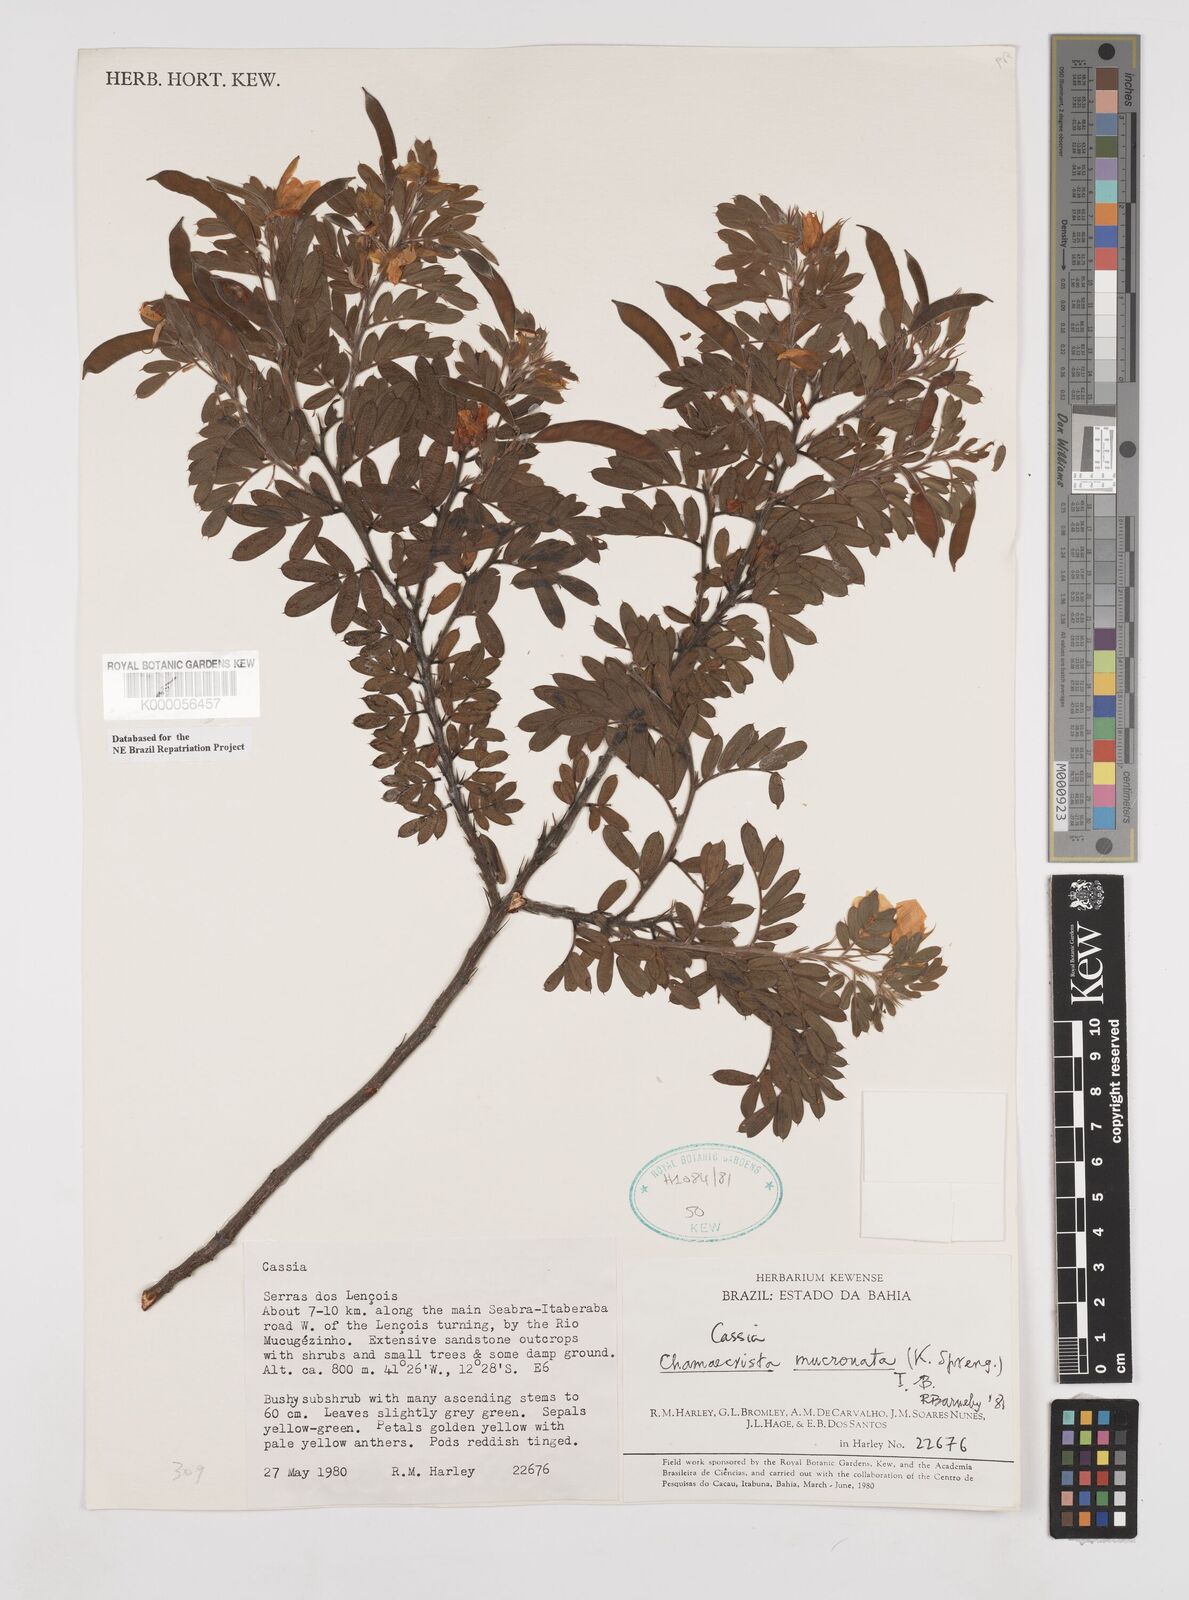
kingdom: Plantae
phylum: Tracheophyta
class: Magnoliopsida
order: Fabales
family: Fabaceae
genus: Chamaecrista
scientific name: Chamaecrista mucronata
